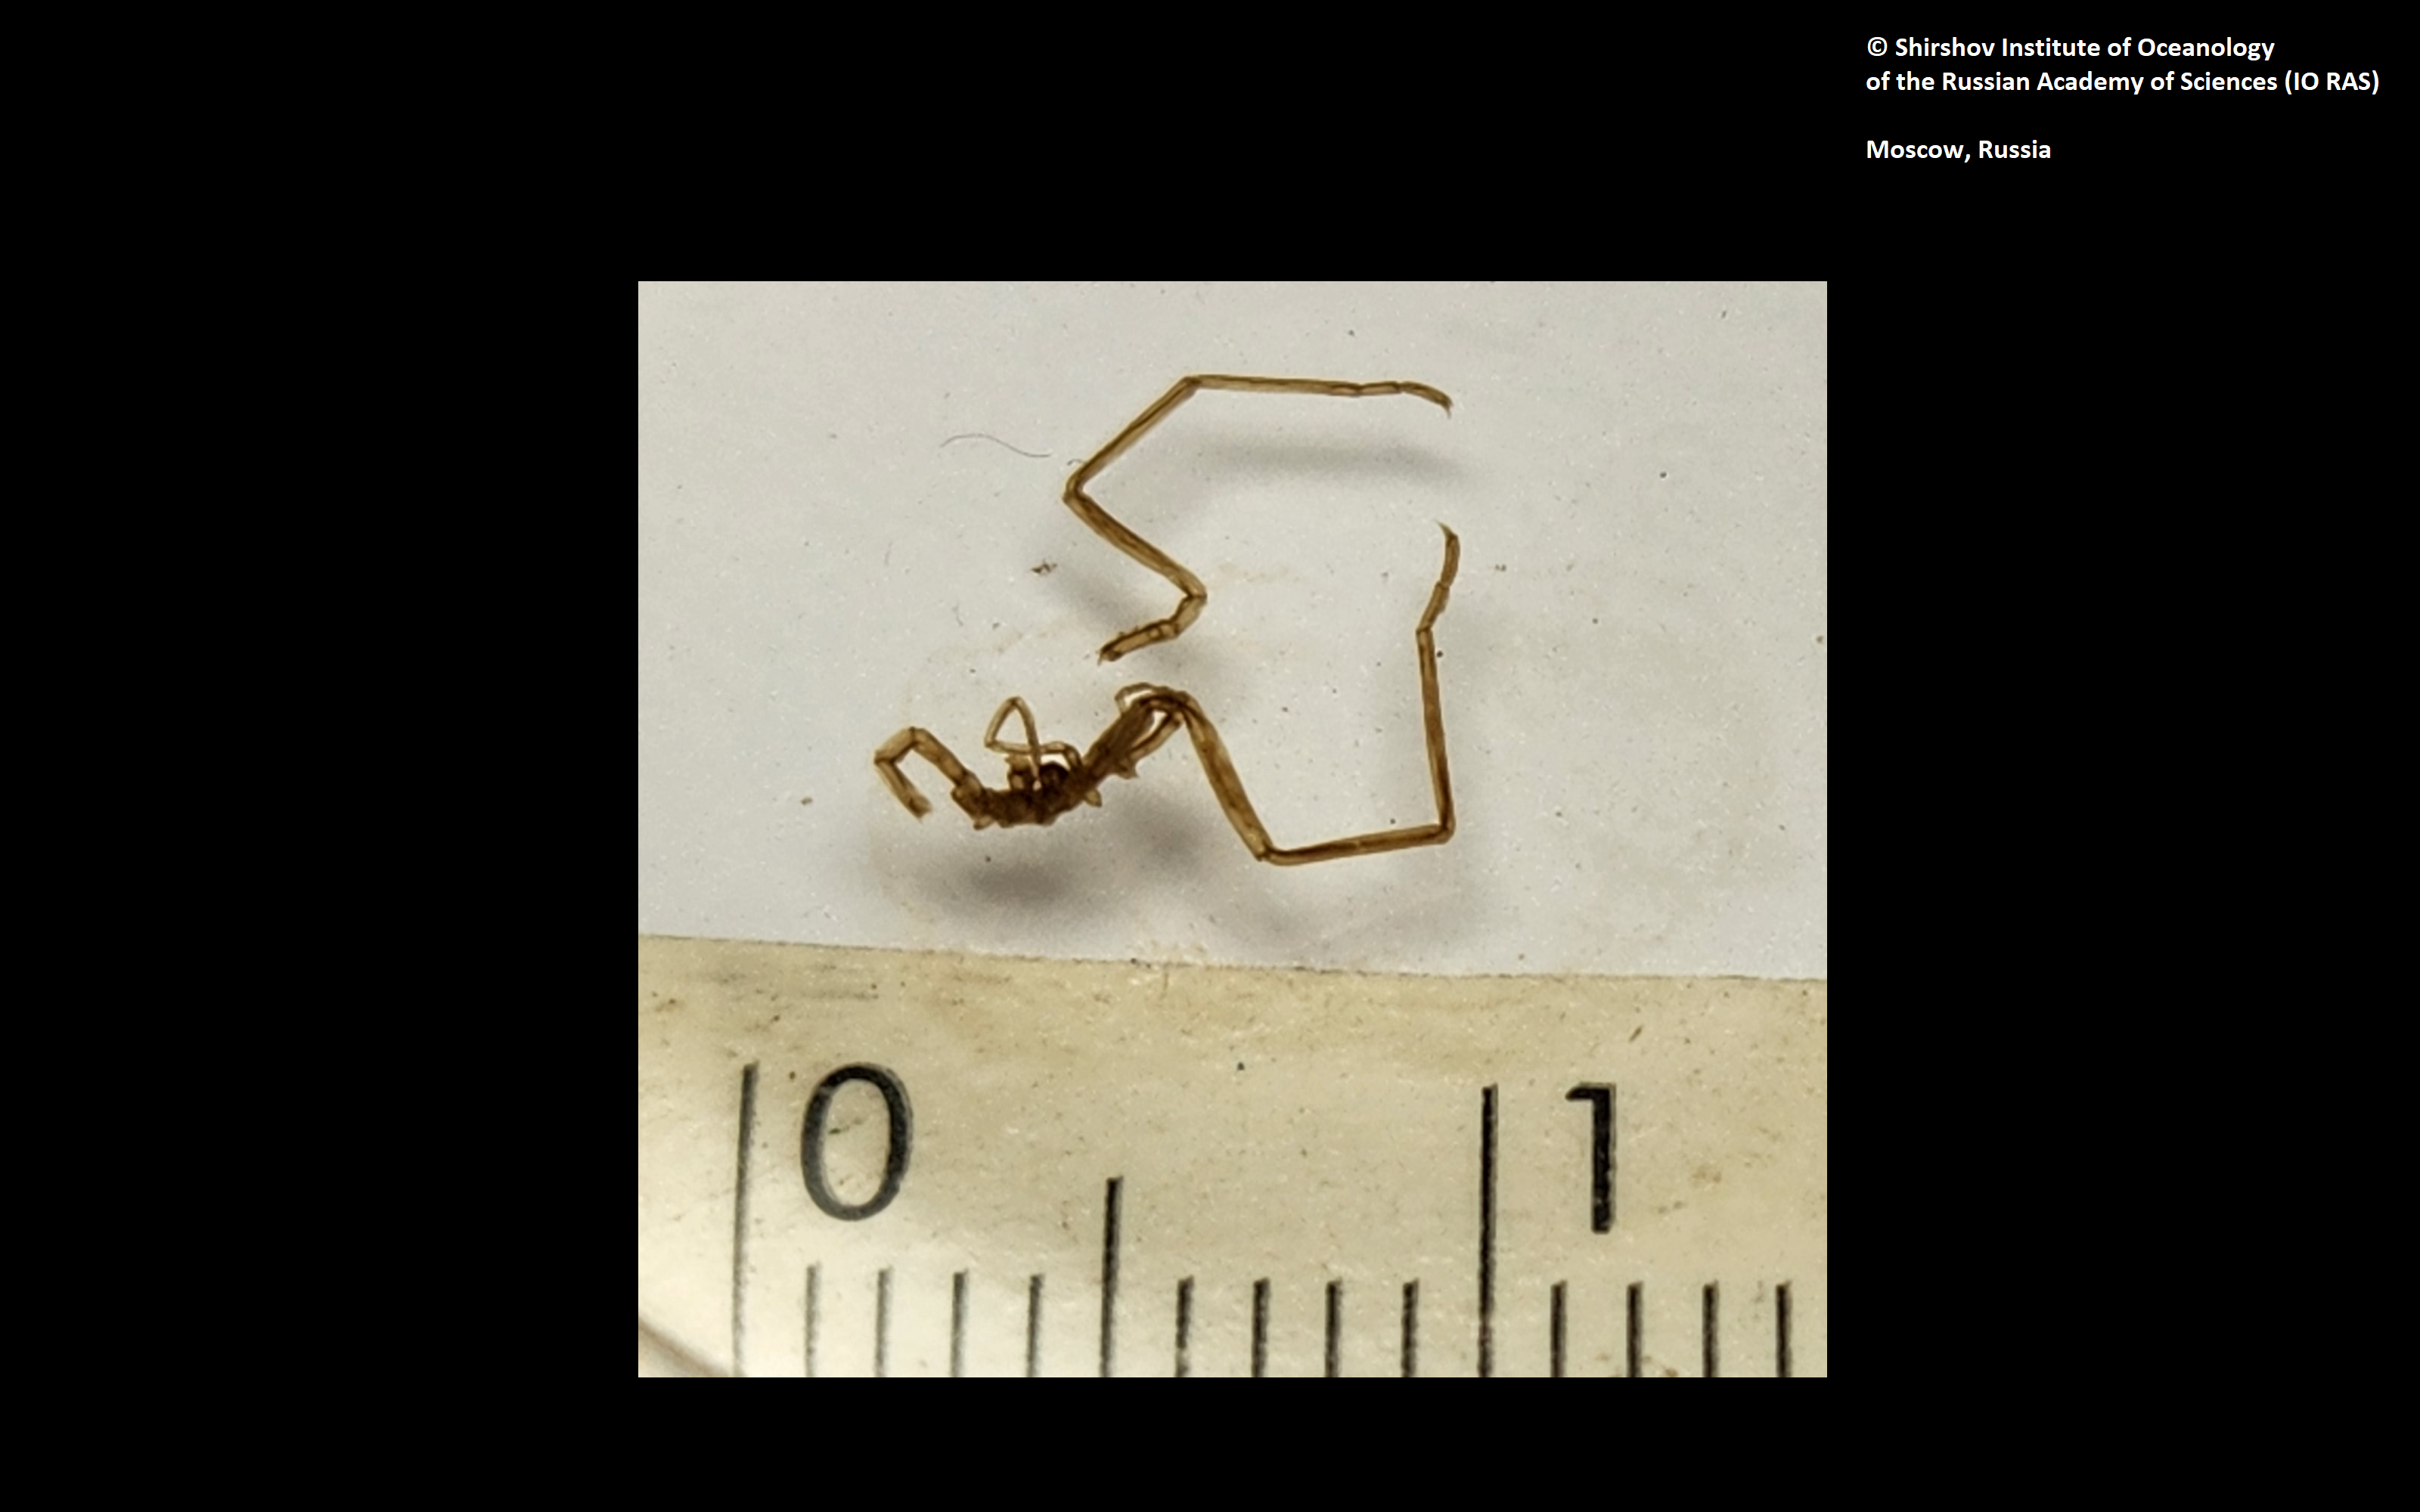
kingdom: Animalia
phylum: Arthropoda
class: Pycnogonida
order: Pantopoda
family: Nymphonidae
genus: Nymphon
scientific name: Nymphon tripectinatum
